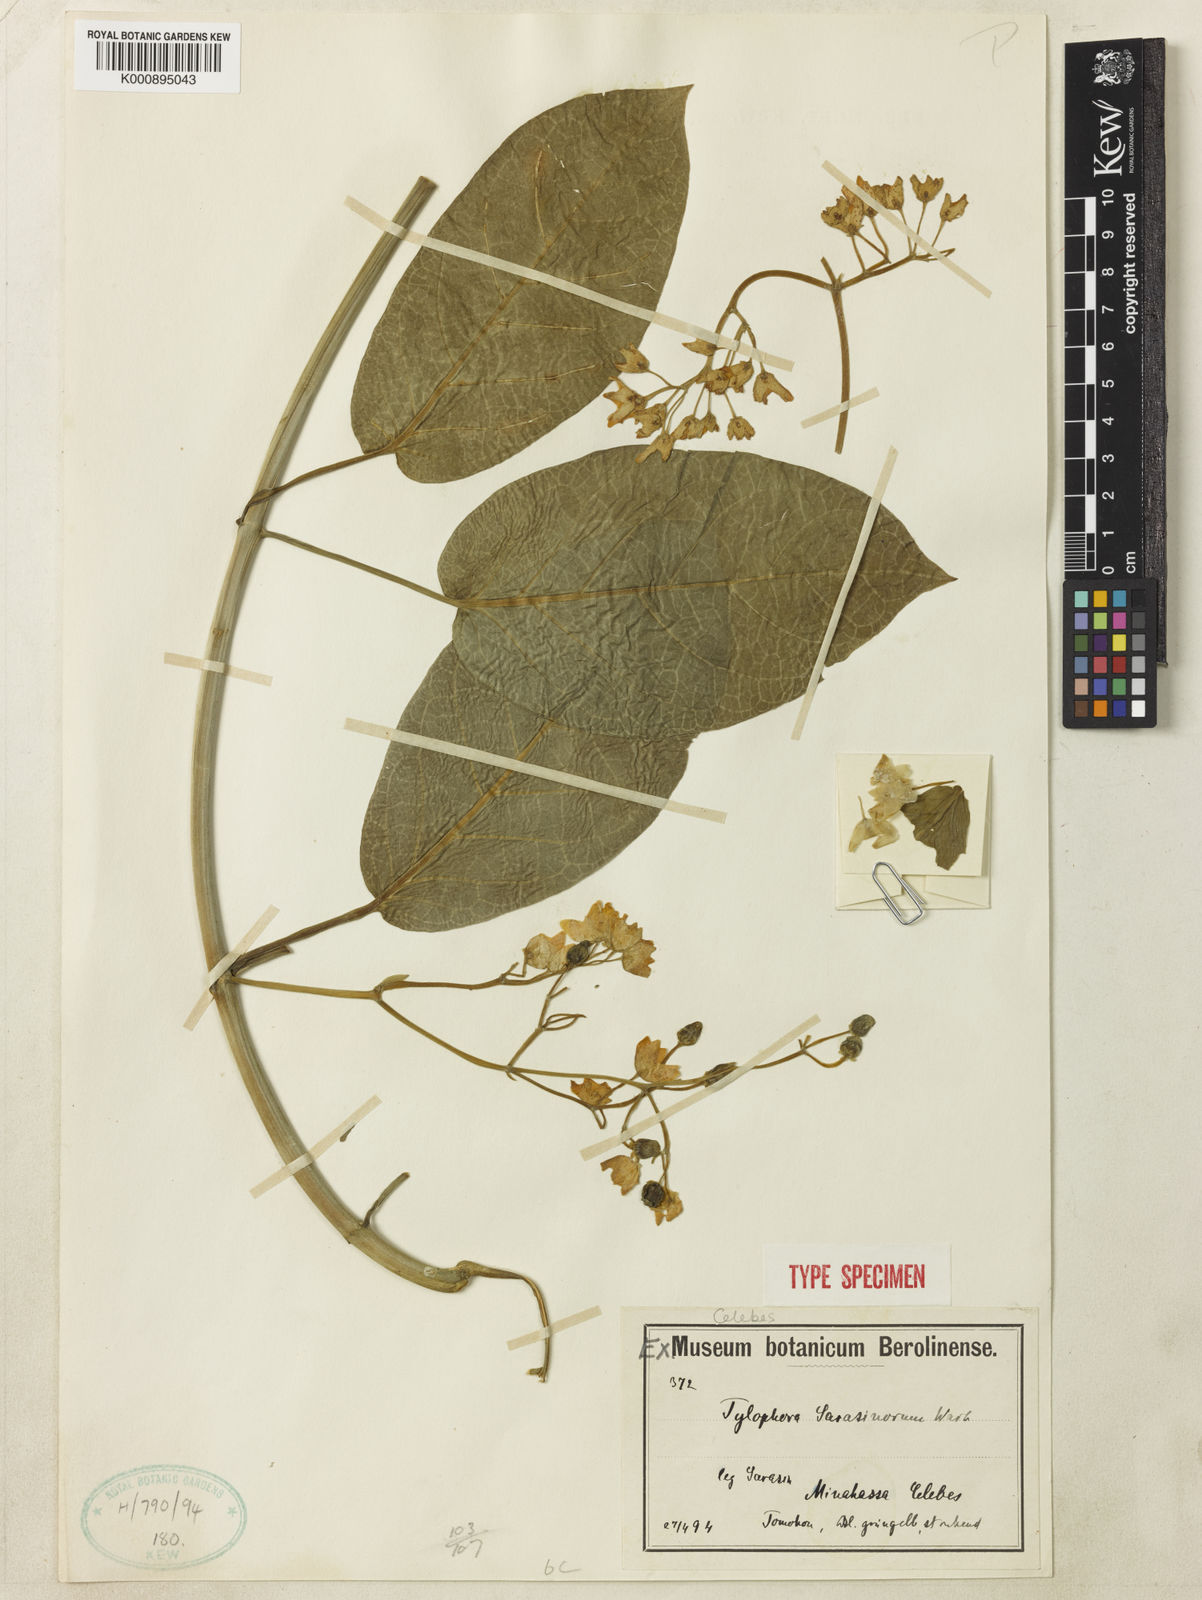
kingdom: Plantae
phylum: Tracheophyta
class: Magnoliopsida
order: Gentianales
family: Apocynaceae
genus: Vincetoxicum
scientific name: Vincetoxicum sarasinorum
